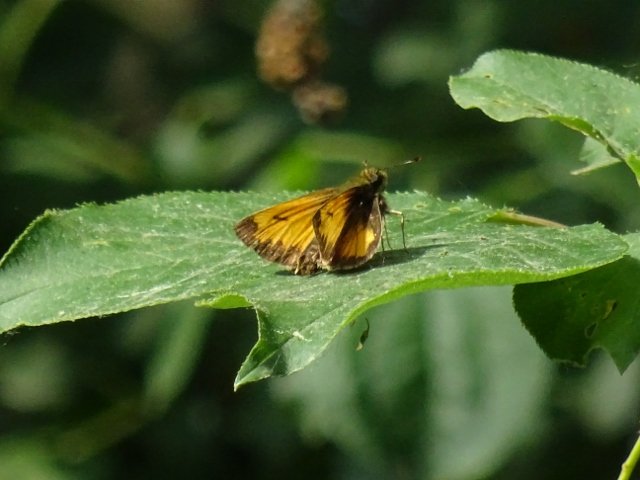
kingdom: Animalia
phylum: Arthropoda
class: Insecta
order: Lepidoptera
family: Hesperiidae
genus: Lon
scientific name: Lon hobomok
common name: Hobomok Skipper
